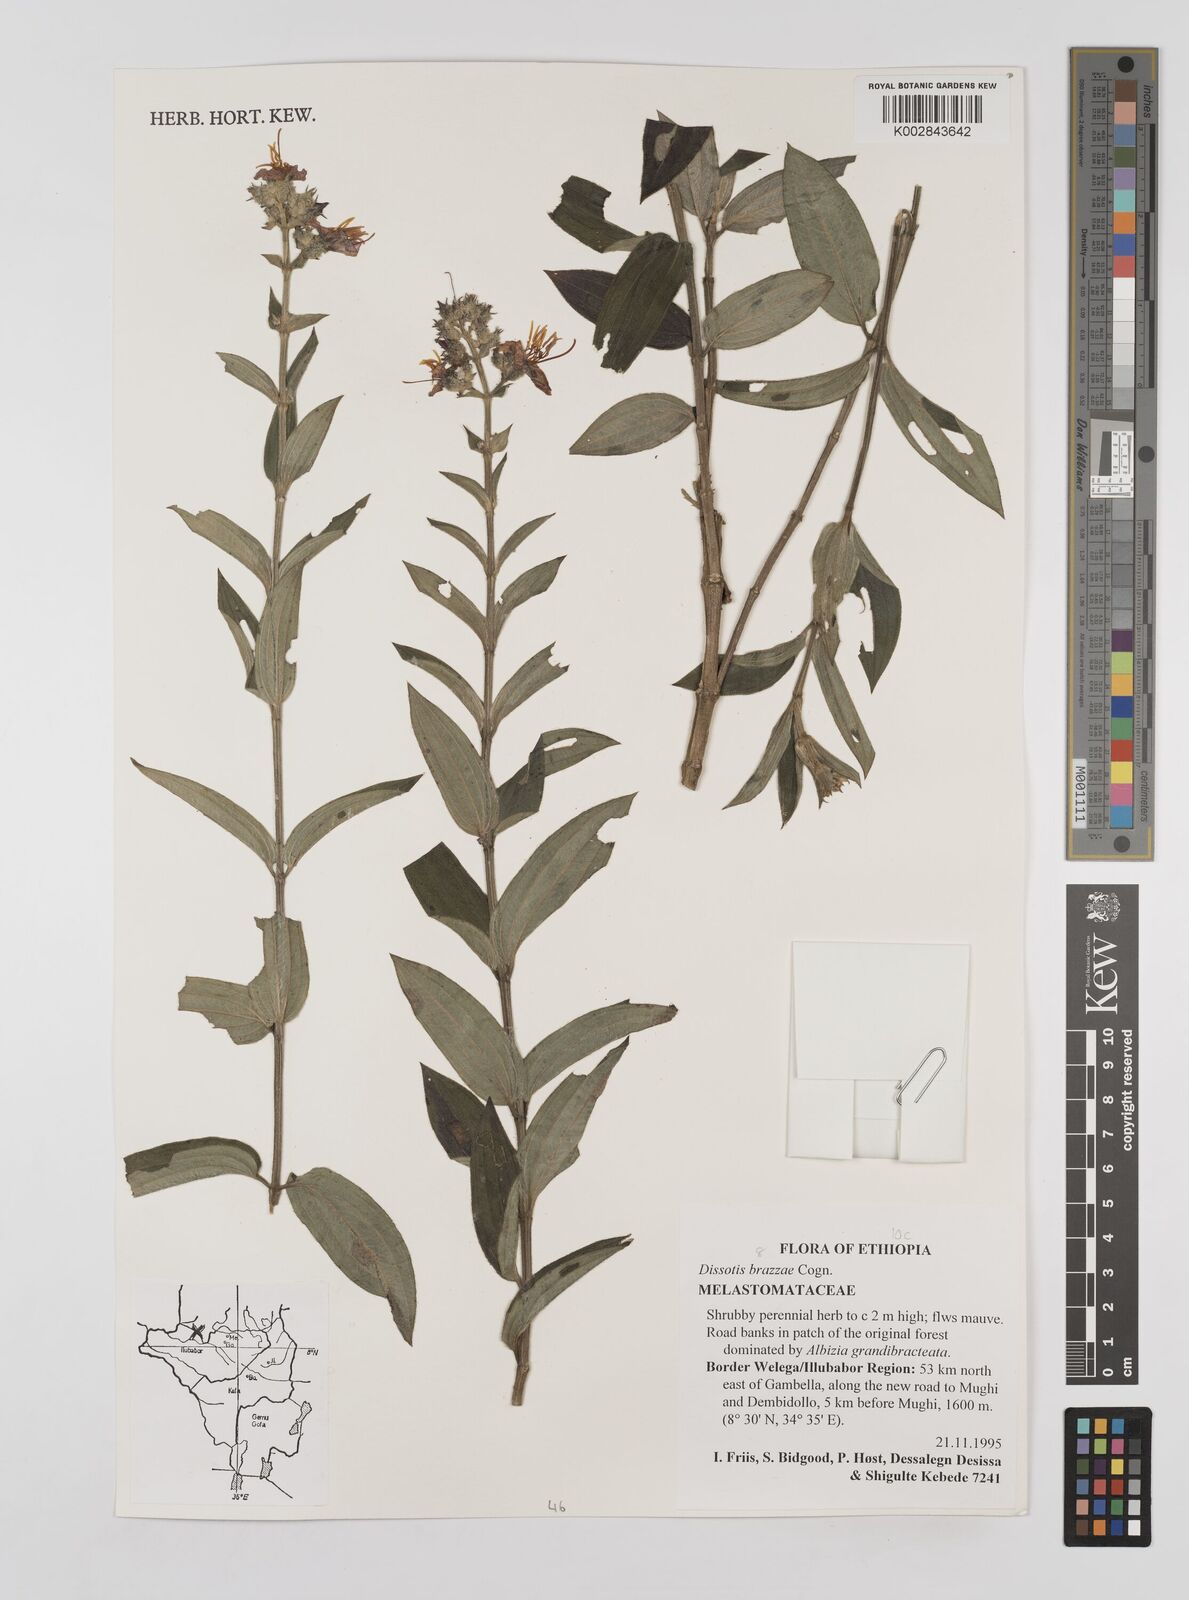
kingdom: Plantae
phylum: Tracheophyta
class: Magnoliopsida
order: Myrtales
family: Melastomataceae
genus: Dupineta
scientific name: Dupineta brazzae
